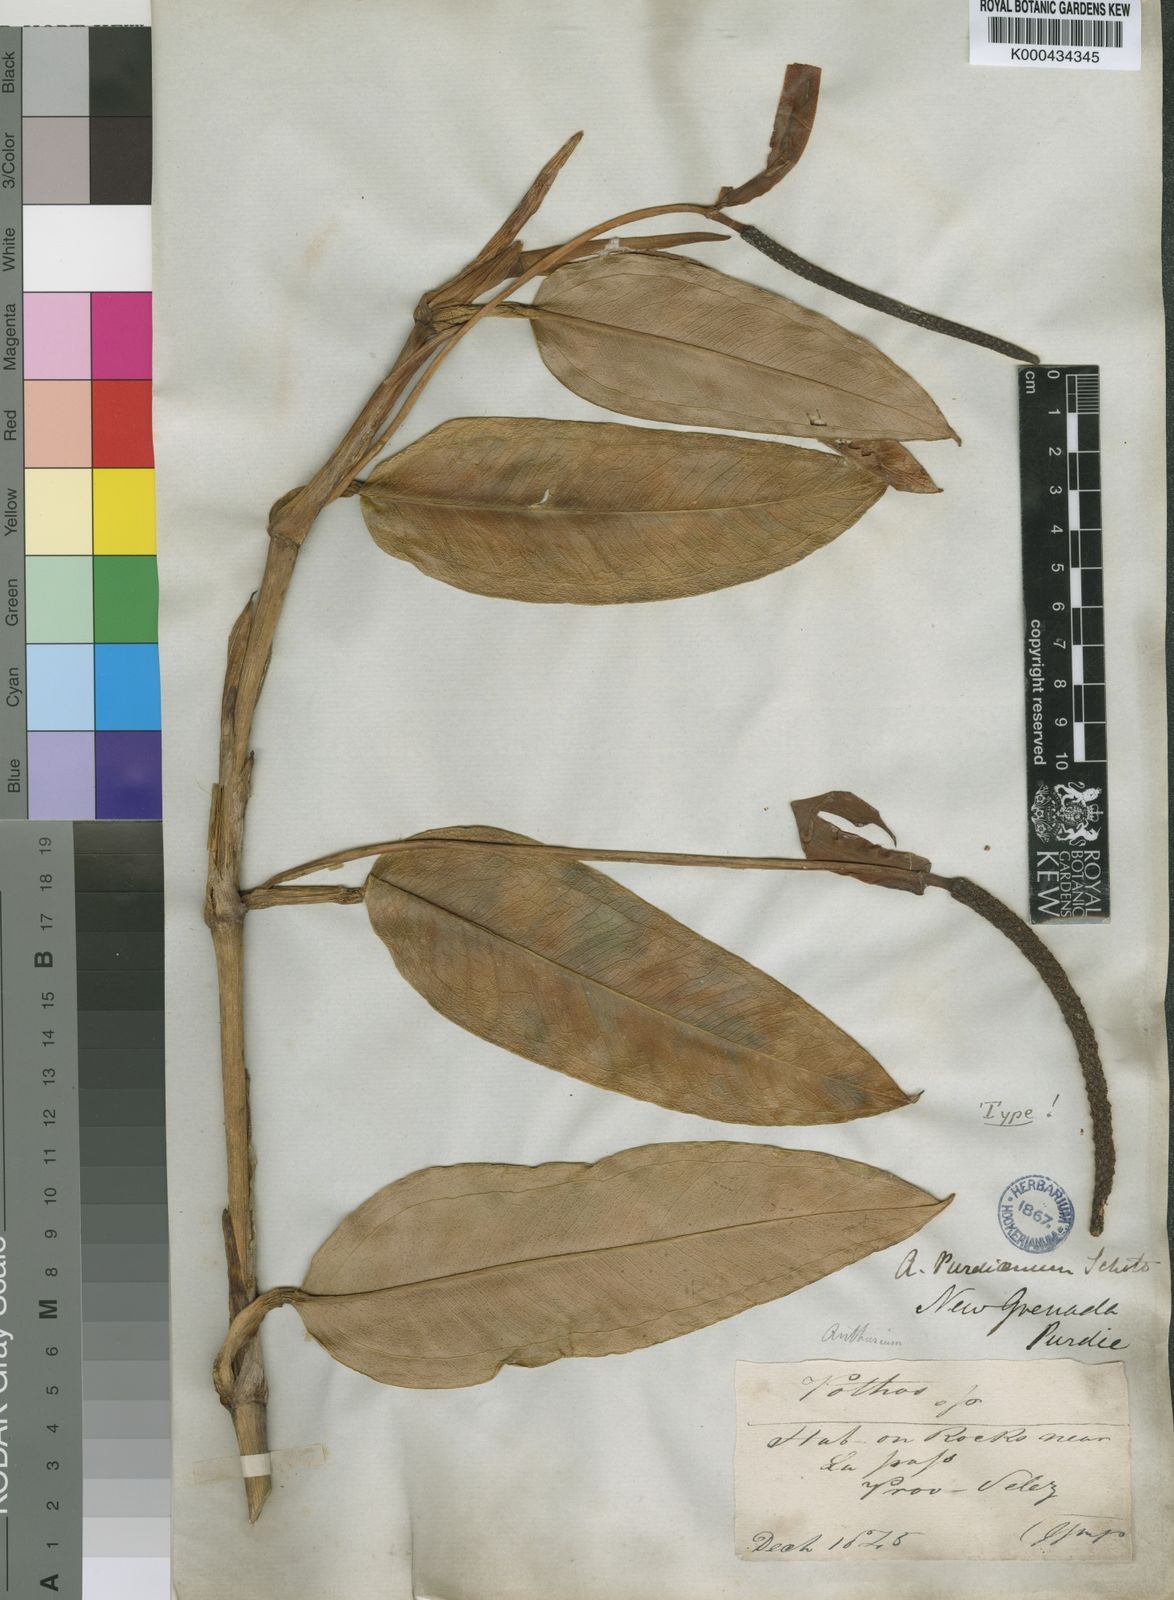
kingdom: Plantae
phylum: Tracheophyta
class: Liliopsida
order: Alismatales
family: Araceae
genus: Anthurium
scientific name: Anthurium purdieanum
